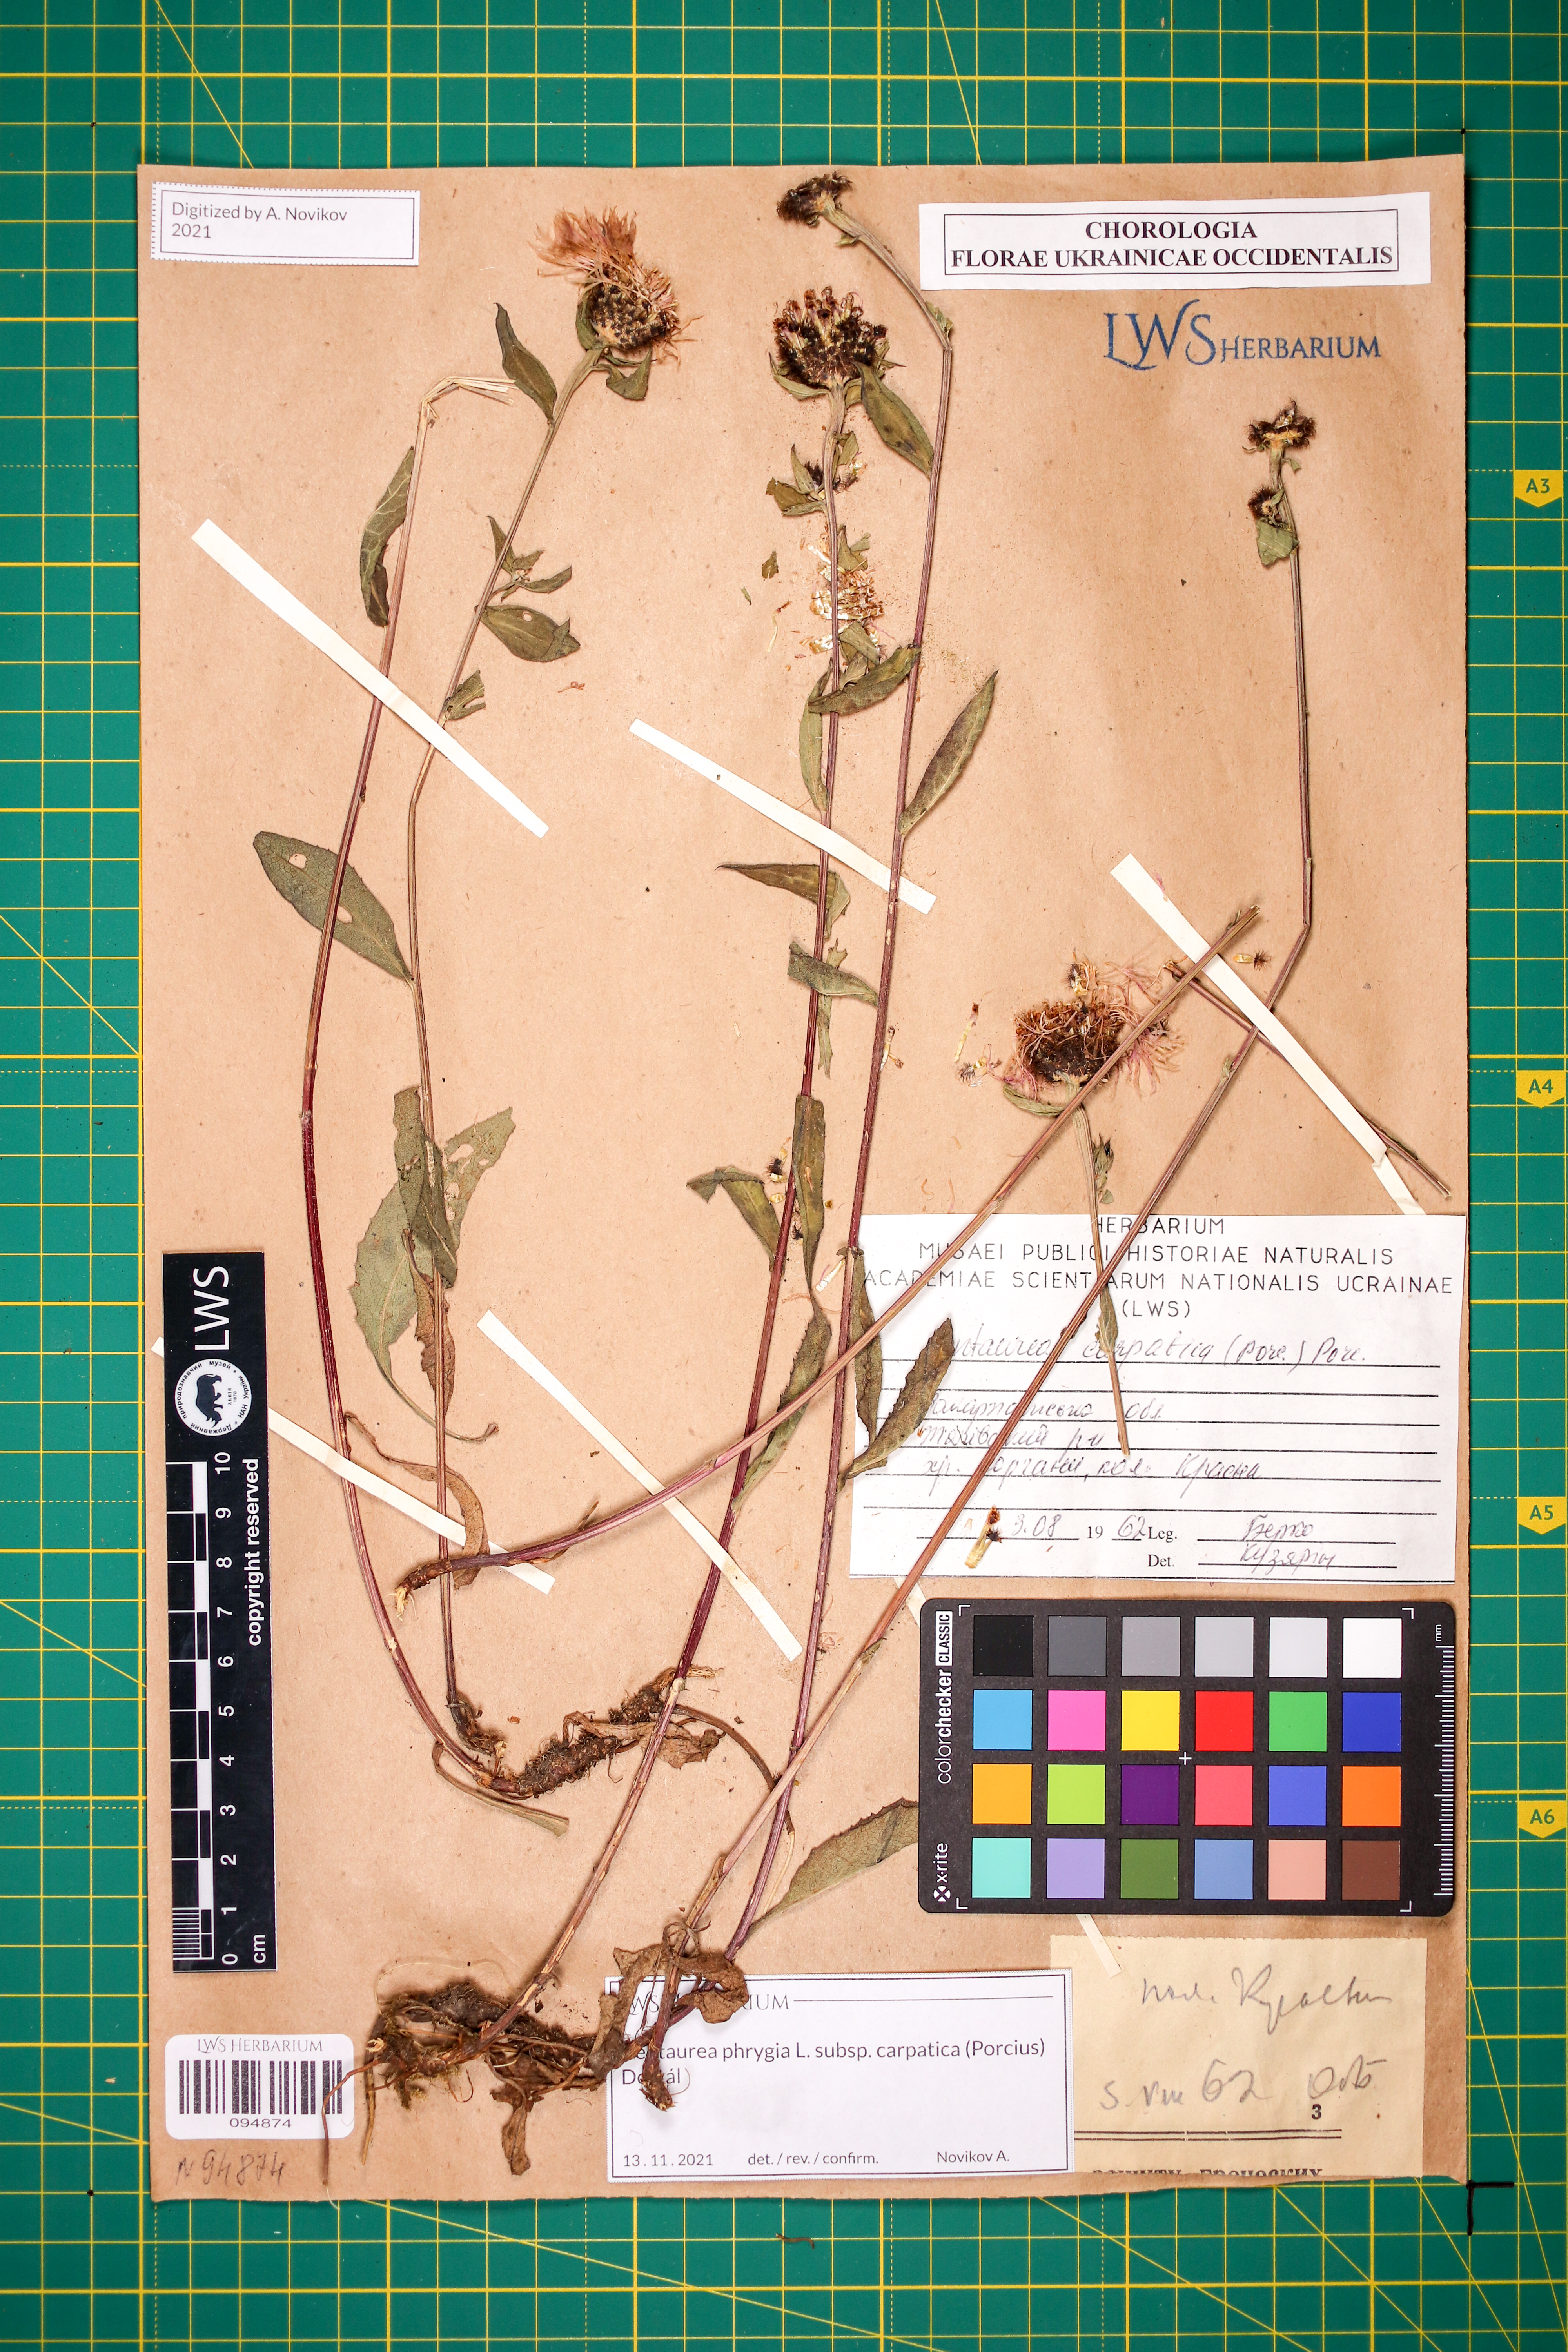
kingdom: Plantae
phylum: Tracheophyta
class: Magnoliopsida
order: Asterales
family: Asteraceae
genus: Centaurea
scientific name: Centaurea phrygia
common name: Wig knapweed
